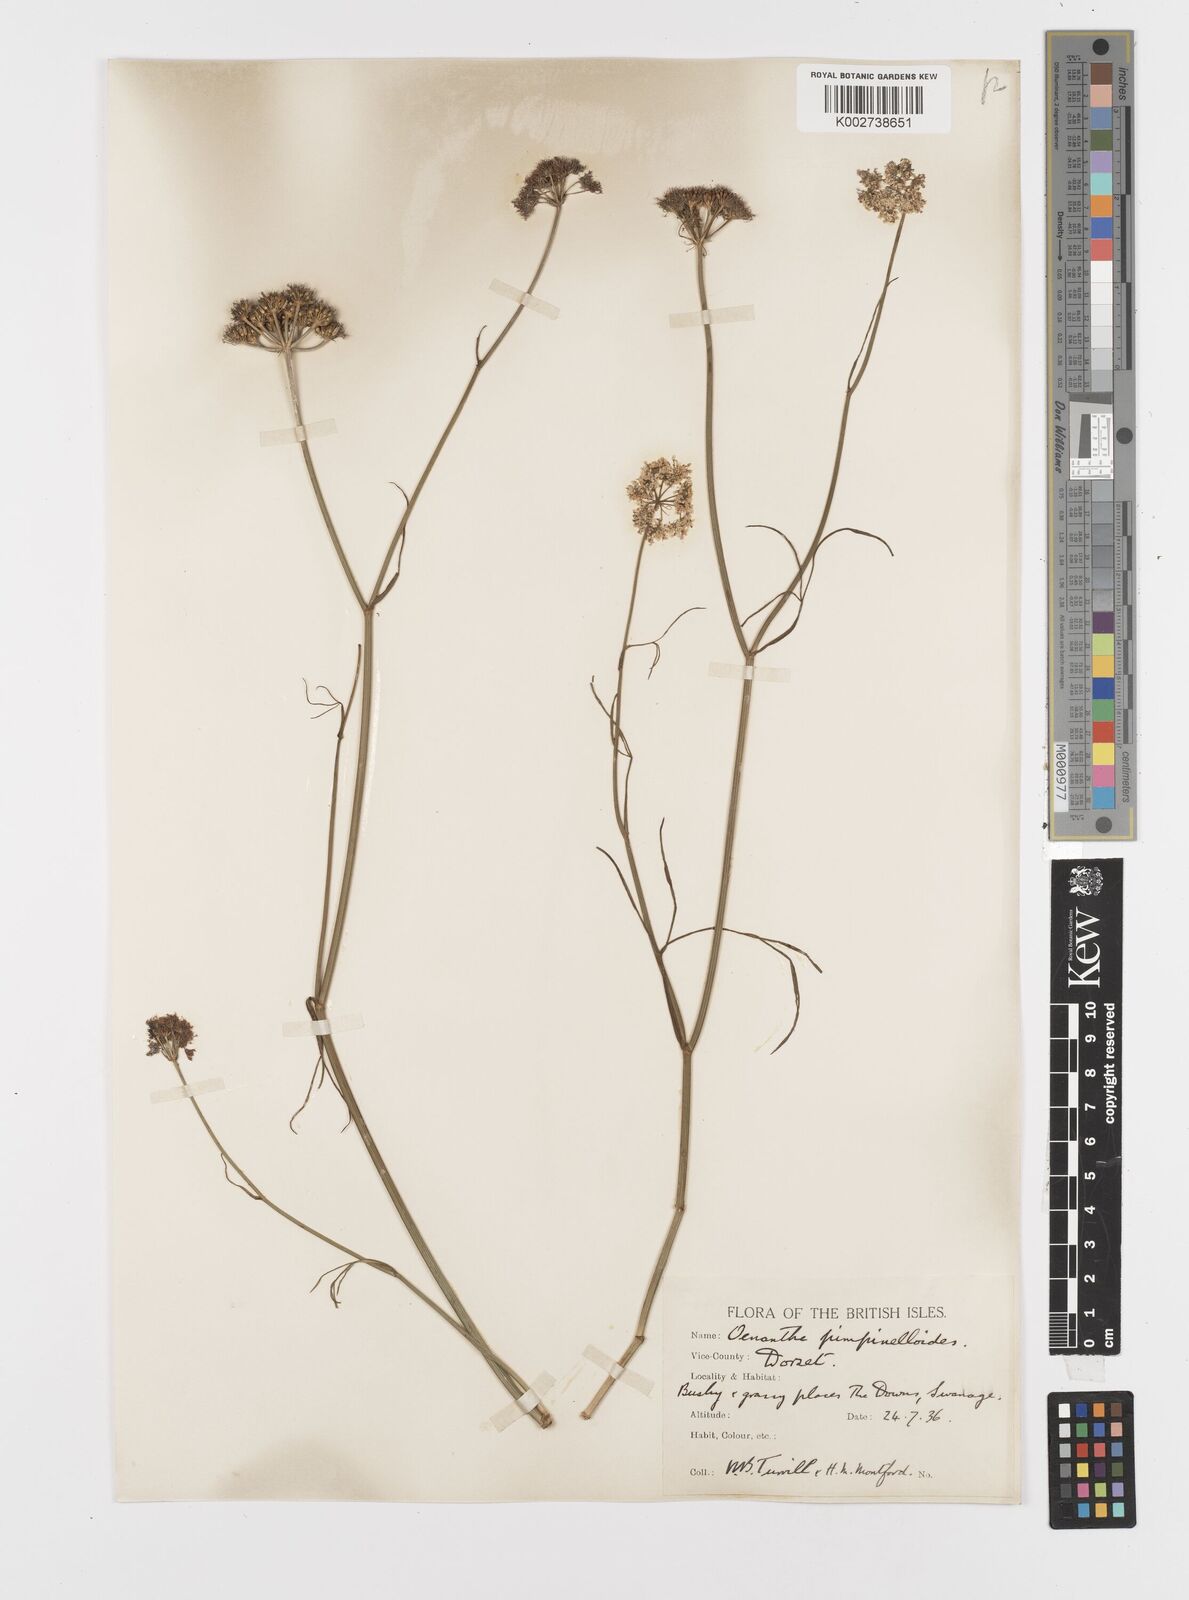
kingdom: Plantae
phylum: Tracheophyta
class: Magnoliopsida
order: Apiales
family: Apiaceae
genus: Oenanthe
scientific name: Oenanthe pimpinelloides
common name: Corky-fruited water-dropwort
